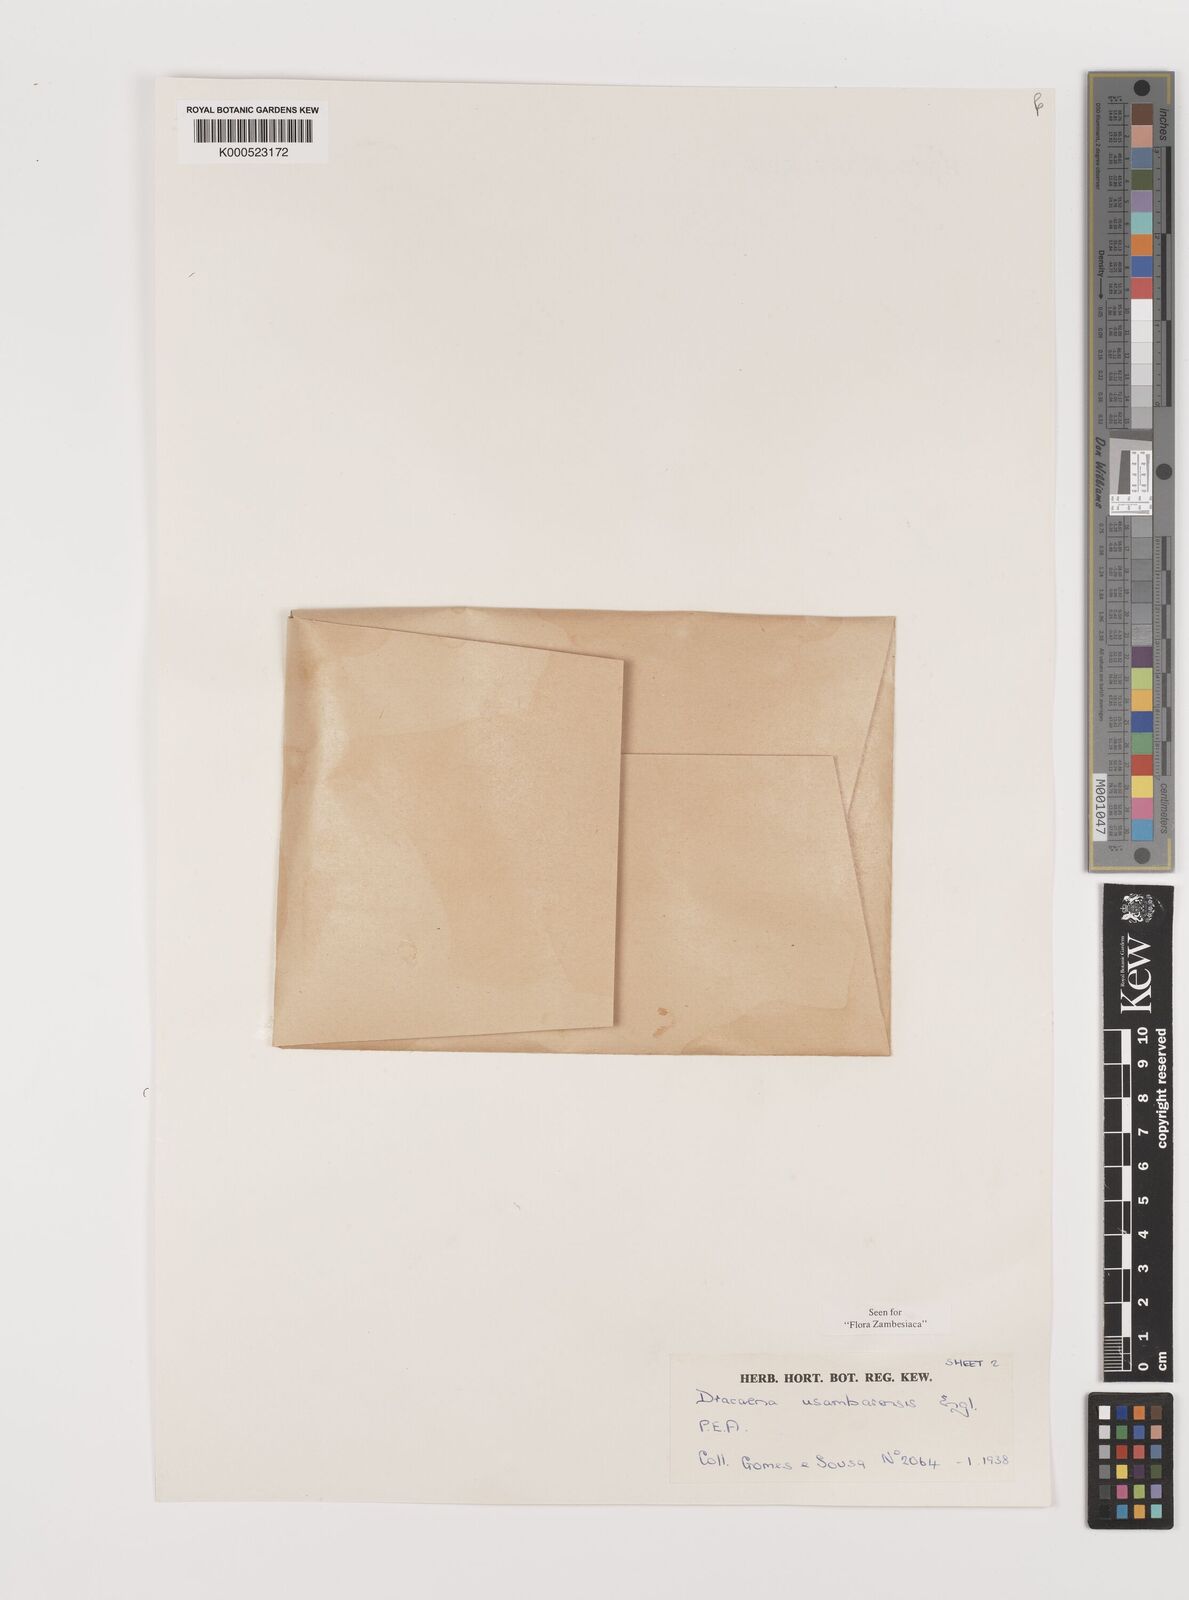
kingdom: Plantae
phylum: Tracheophyta
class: Liliopsida
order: Asparagales
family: Asparagaceae
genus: Dracaena
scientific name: Dracaena usambarensis
